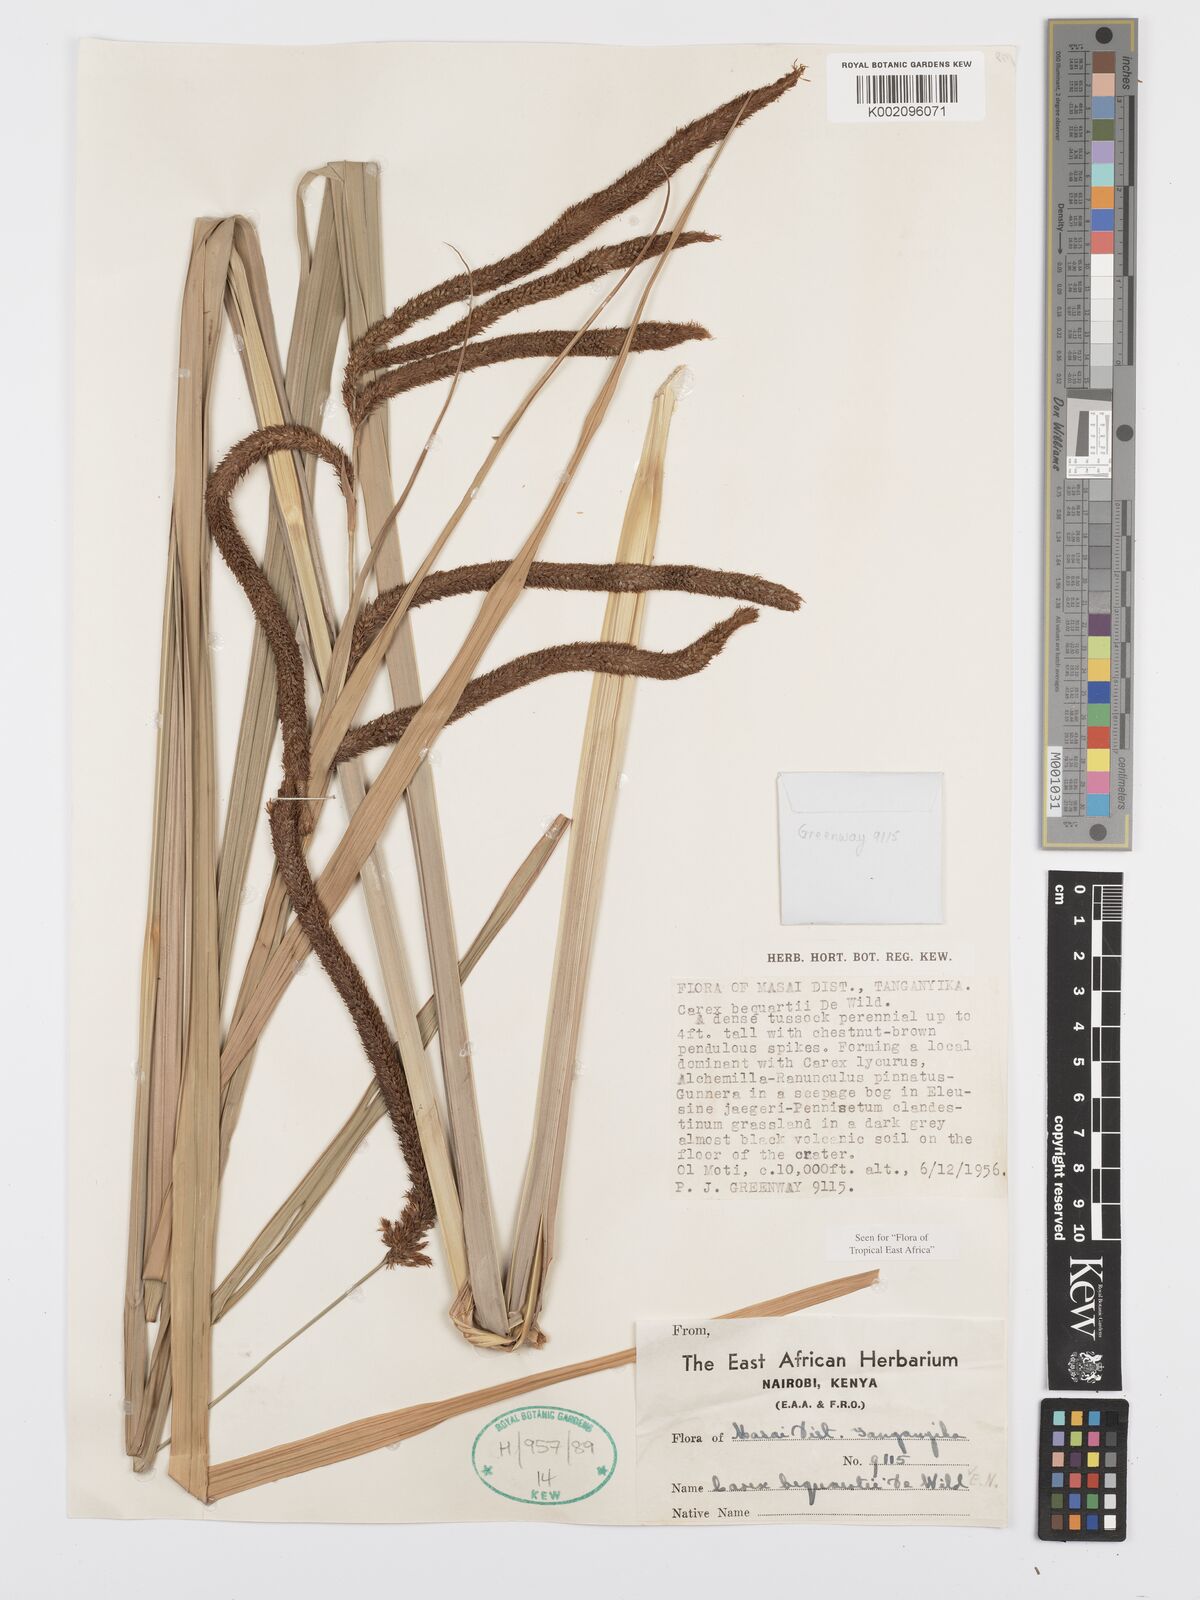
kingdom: Plantae
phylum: Tracheophyta
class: Liliopsida
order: Poales
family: Cyperaceae
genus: Carex
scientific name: Carex bequaertii
